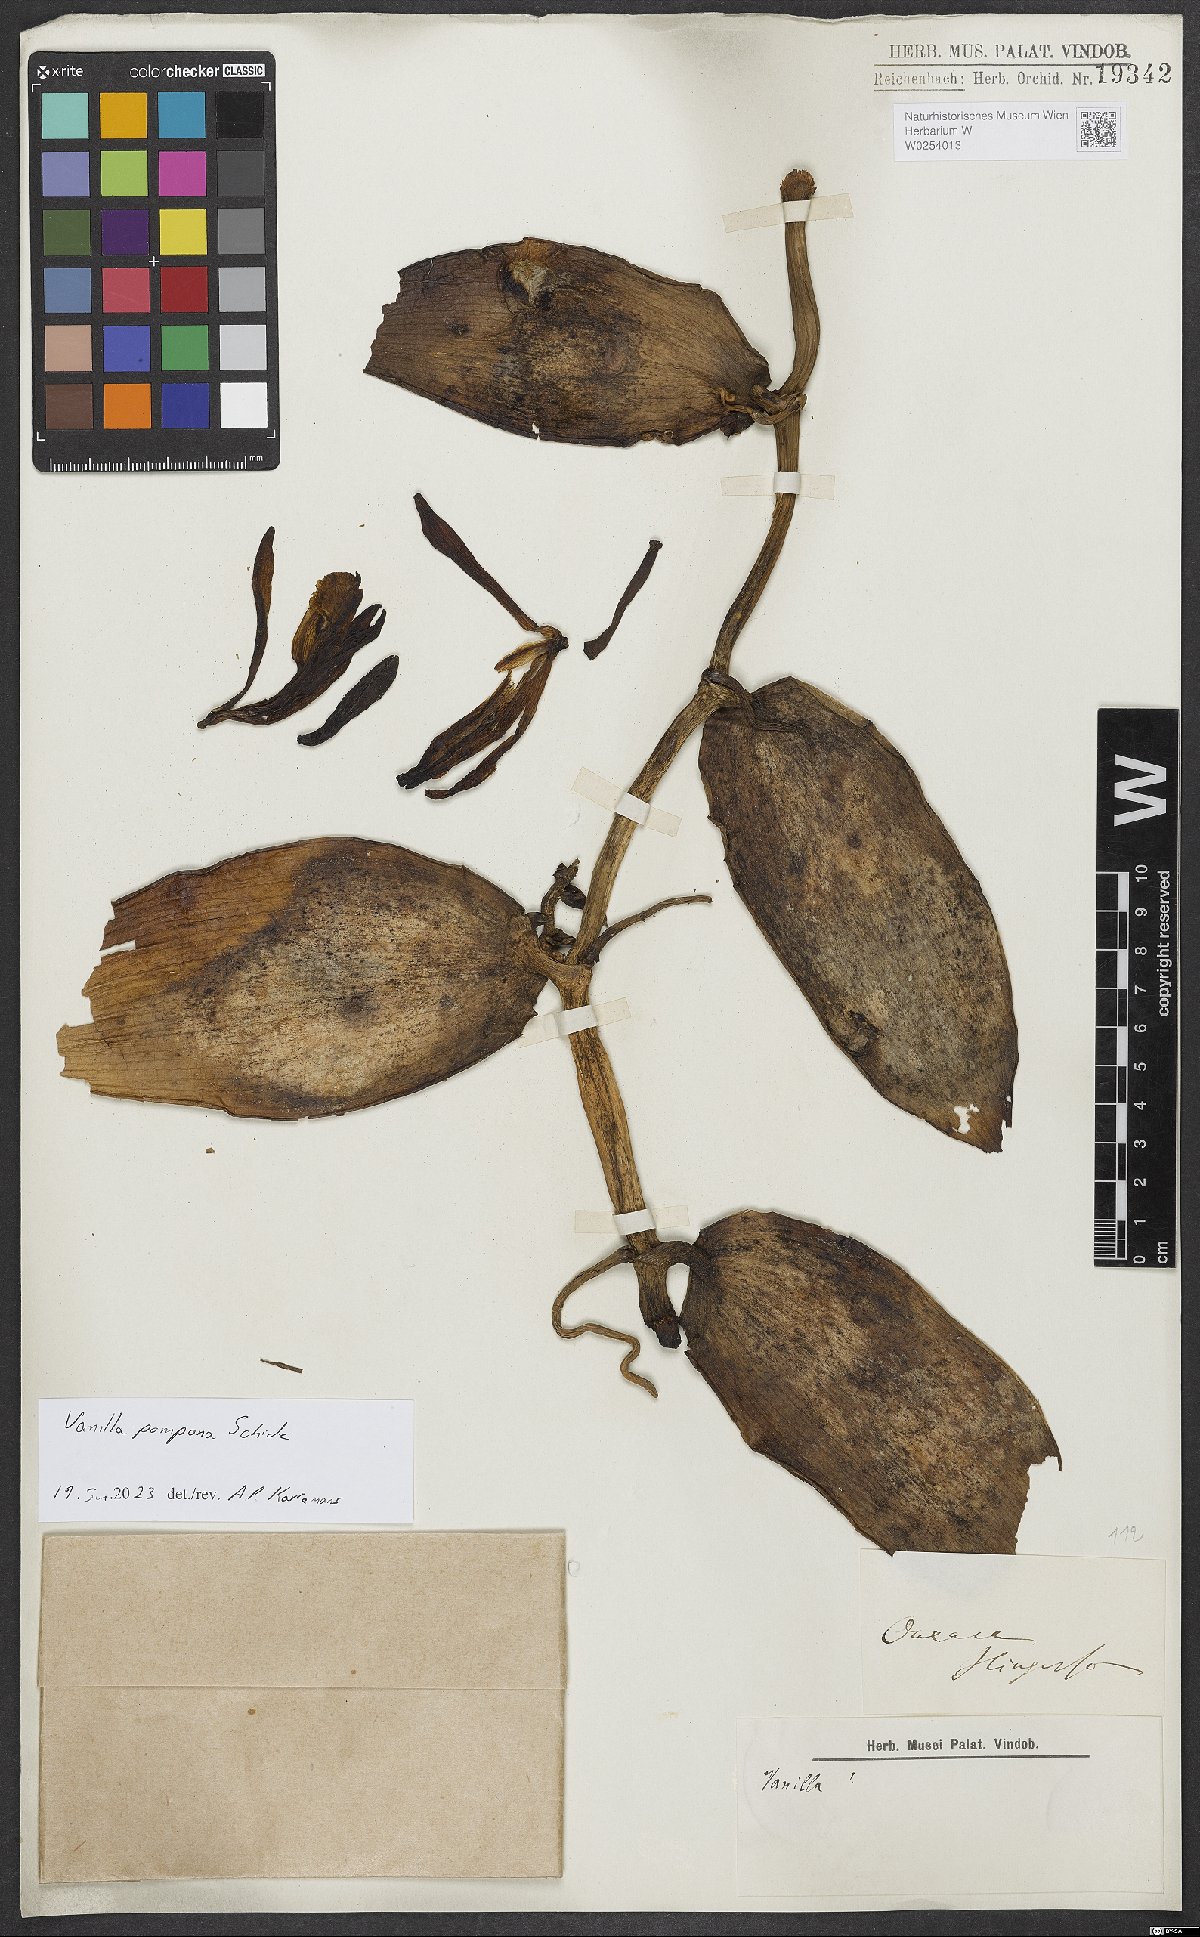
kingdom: Plantae
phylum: Tracheophyta
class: Liliopsida
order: Asparagales
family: Orchidaceae
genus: Vanilla
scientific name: Vanilla pompona
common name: West indian vanilla
